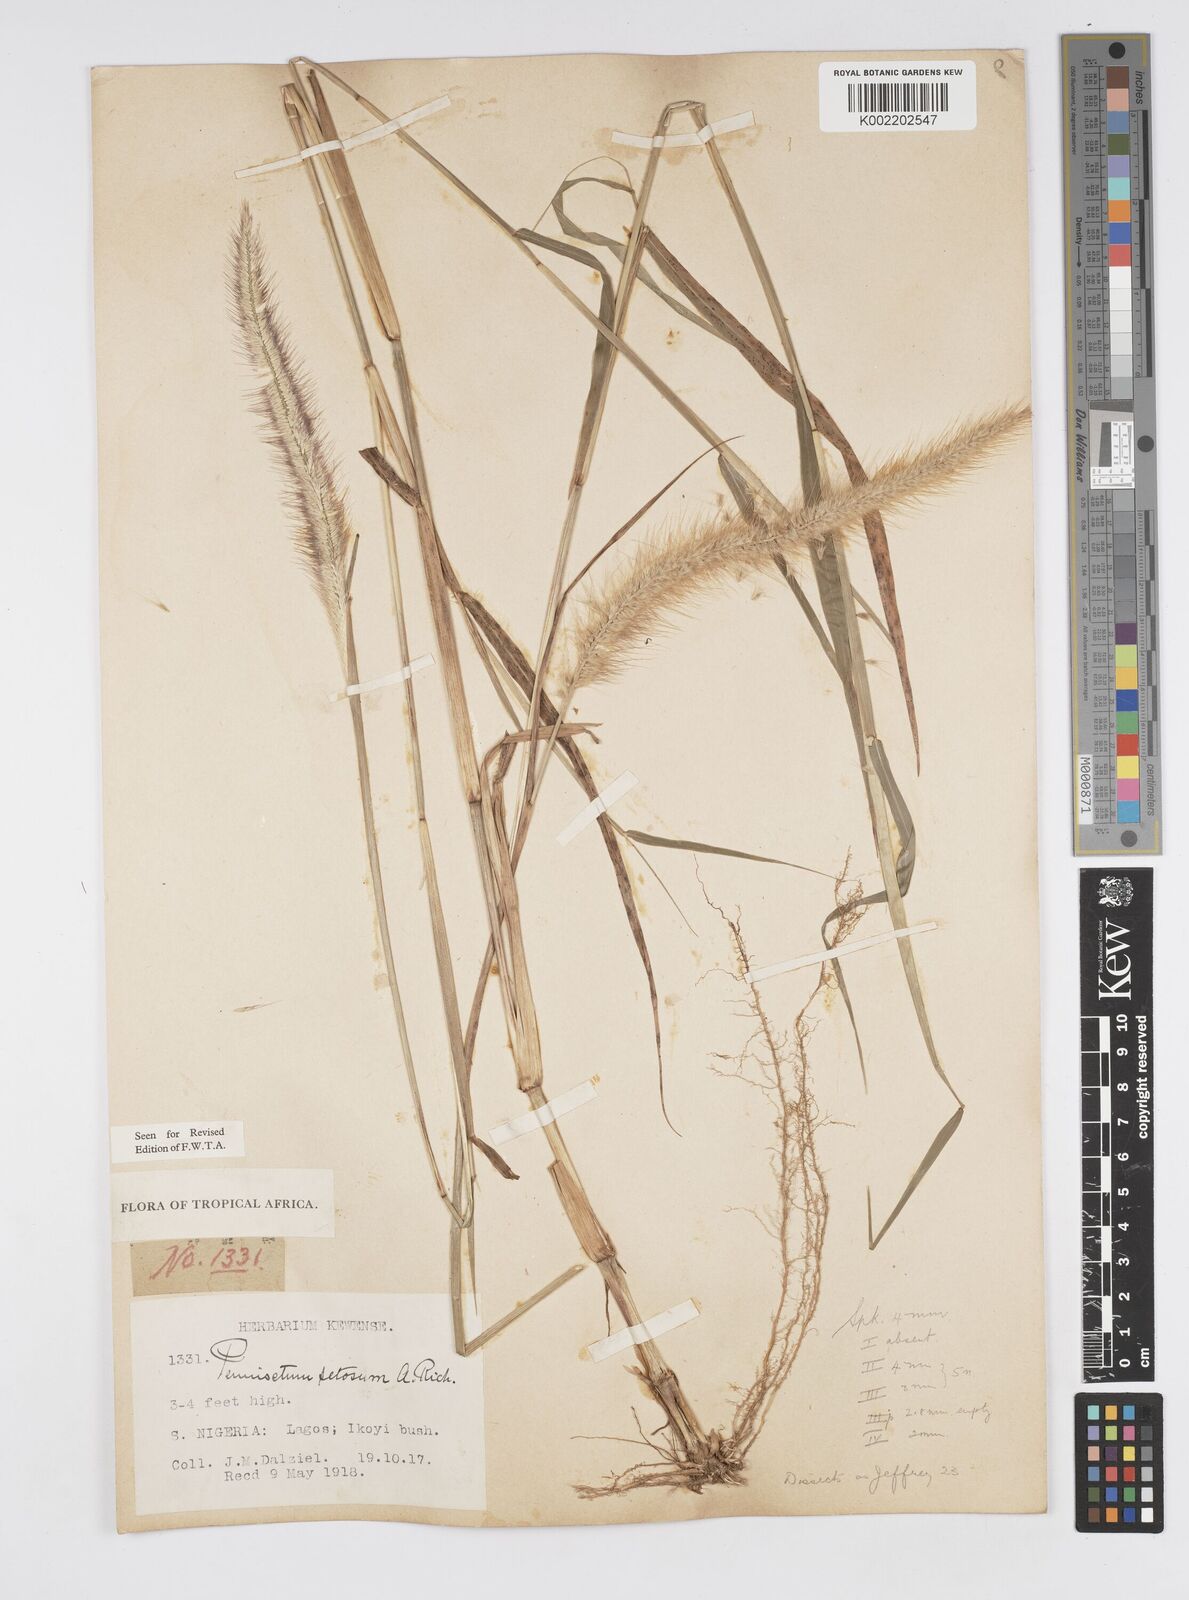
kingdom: Plantae
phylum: Tracheophyta
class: Liliopsida
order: Poales
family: Poaceae
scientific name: Poaceae
